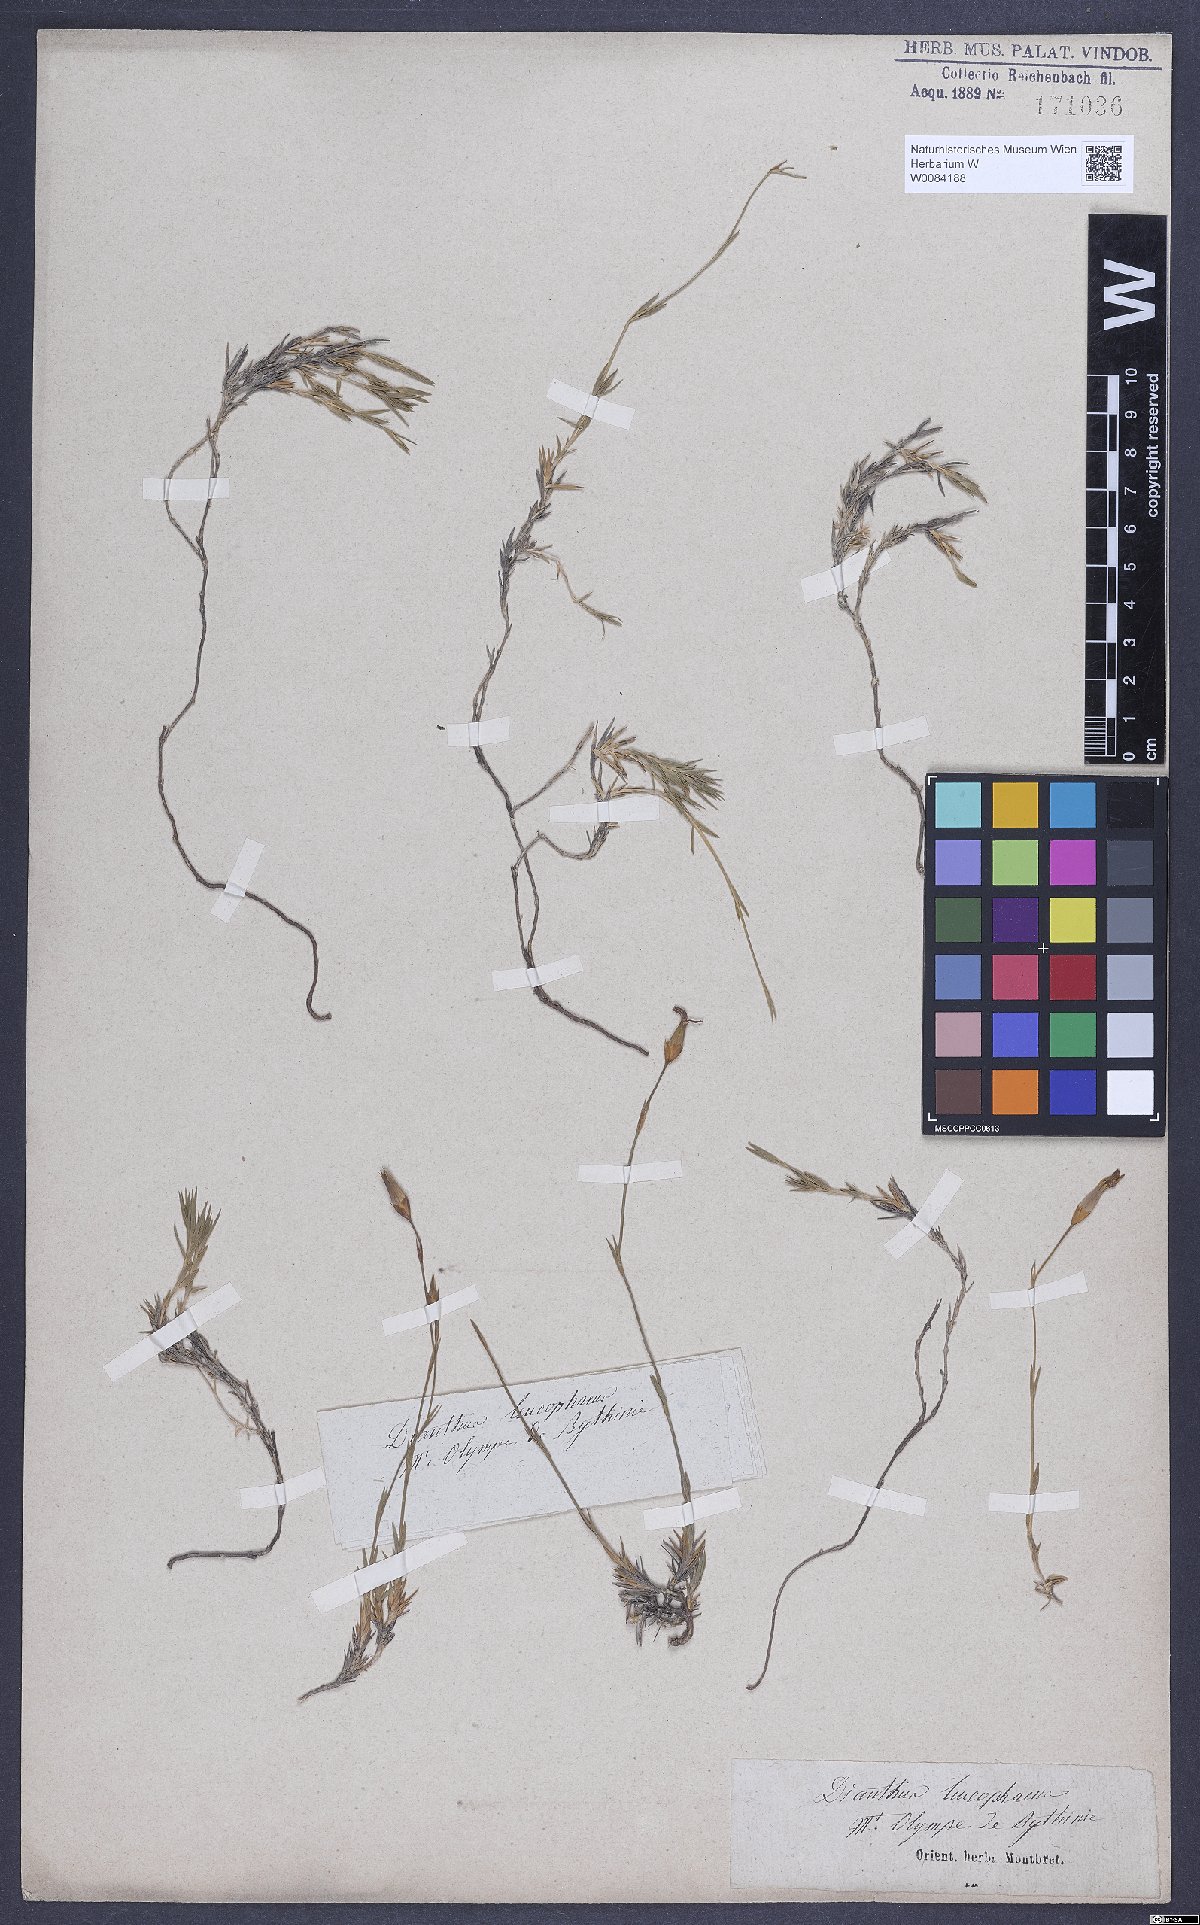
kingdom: Plantae
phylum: Tracheophyta
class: Magnoliopsida
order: Caryophyllales
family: Caryophyllaceae
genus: Dianthus
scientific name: Dianthus leucophaeus
